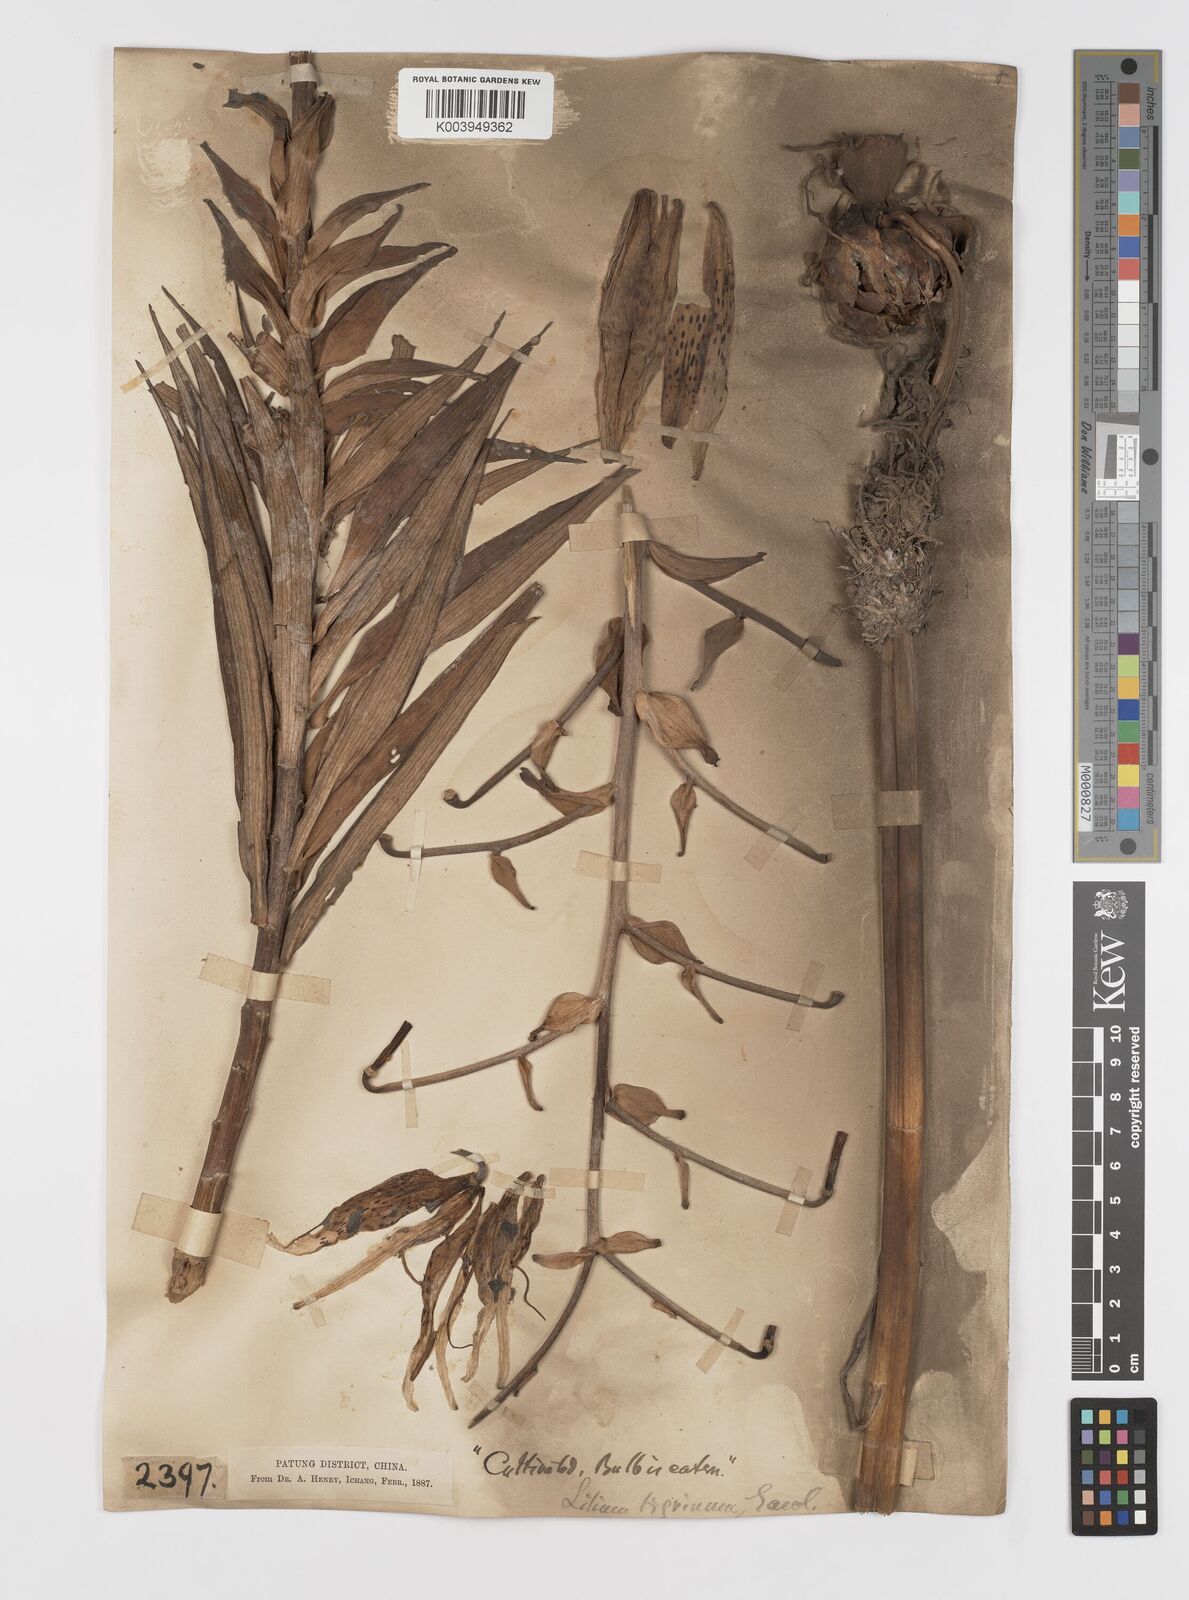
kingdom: Plantae
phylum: Tracheophyta
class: Liliopsida
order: Liliales
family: Liliaceae
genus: Lilium
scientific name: Lilium lancifolium
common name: Tiger lily
